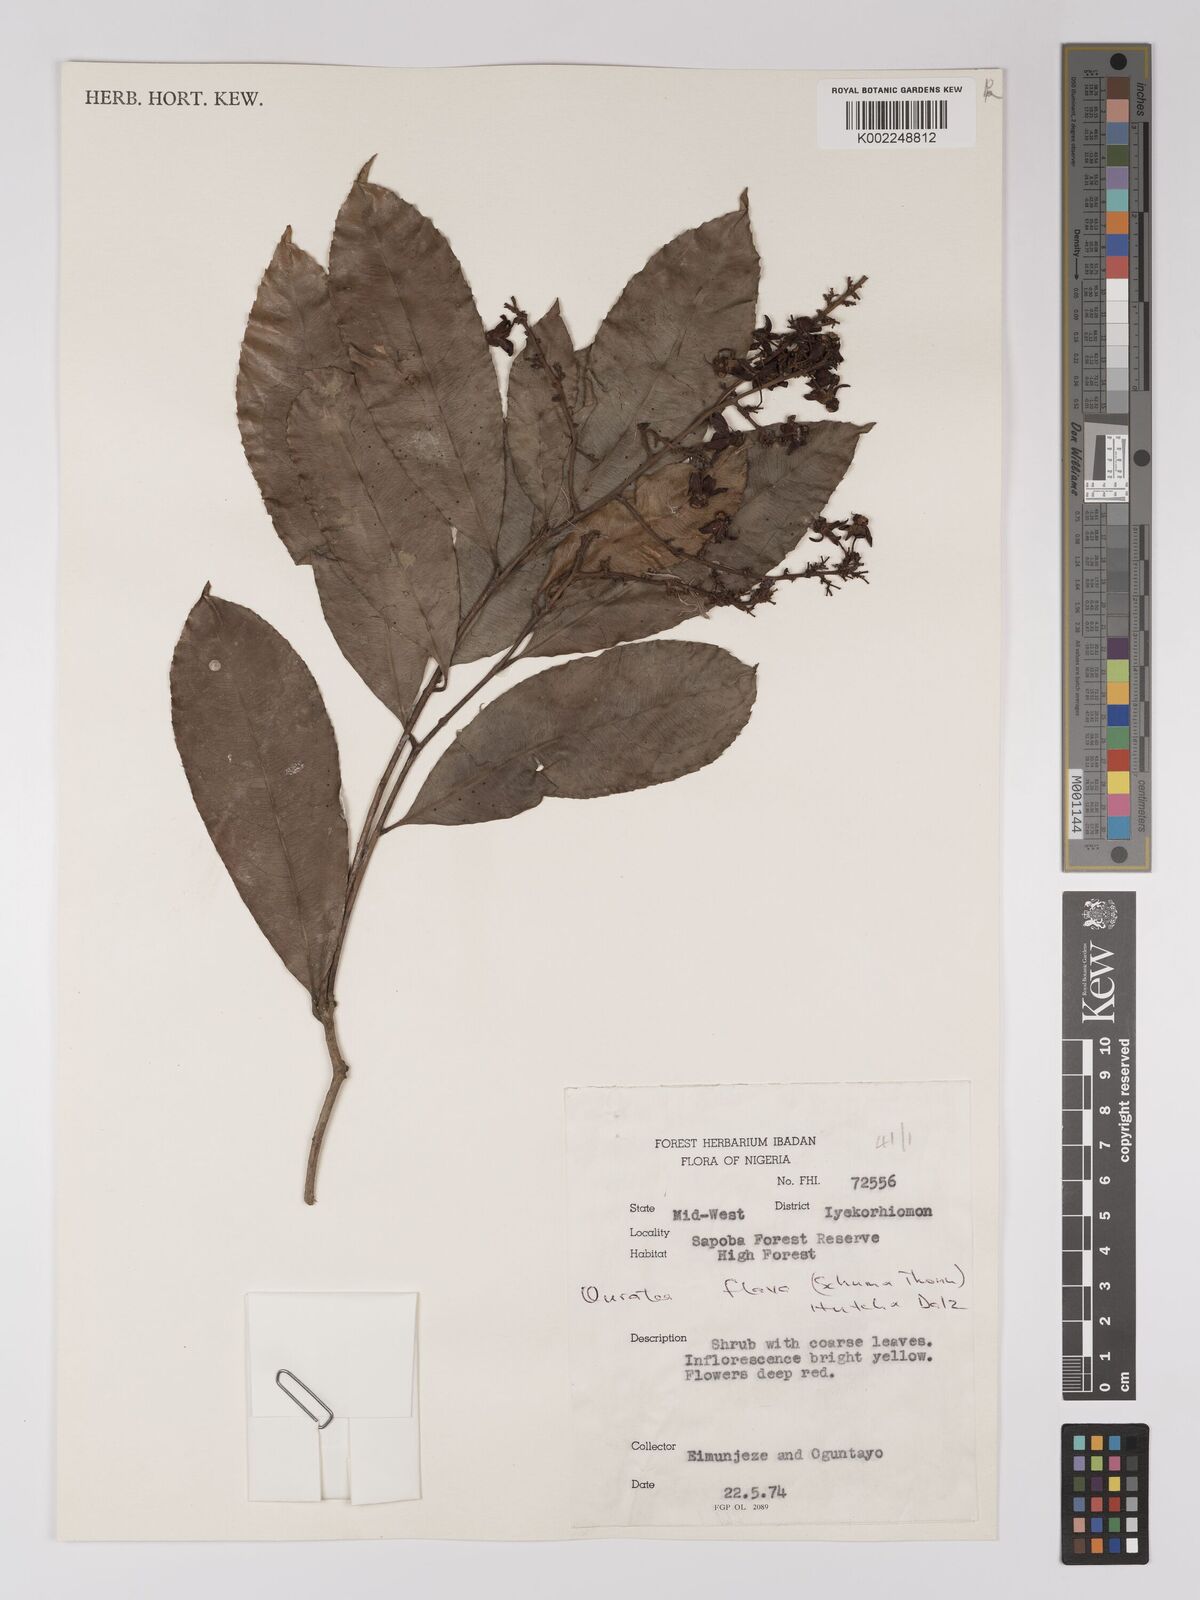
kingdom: Plantae
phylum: Tracheophyta
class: Magnoliopsida
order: Malpighiales
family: Ochnaceae
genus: Campylospermum
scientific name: Campylospermum flavum
